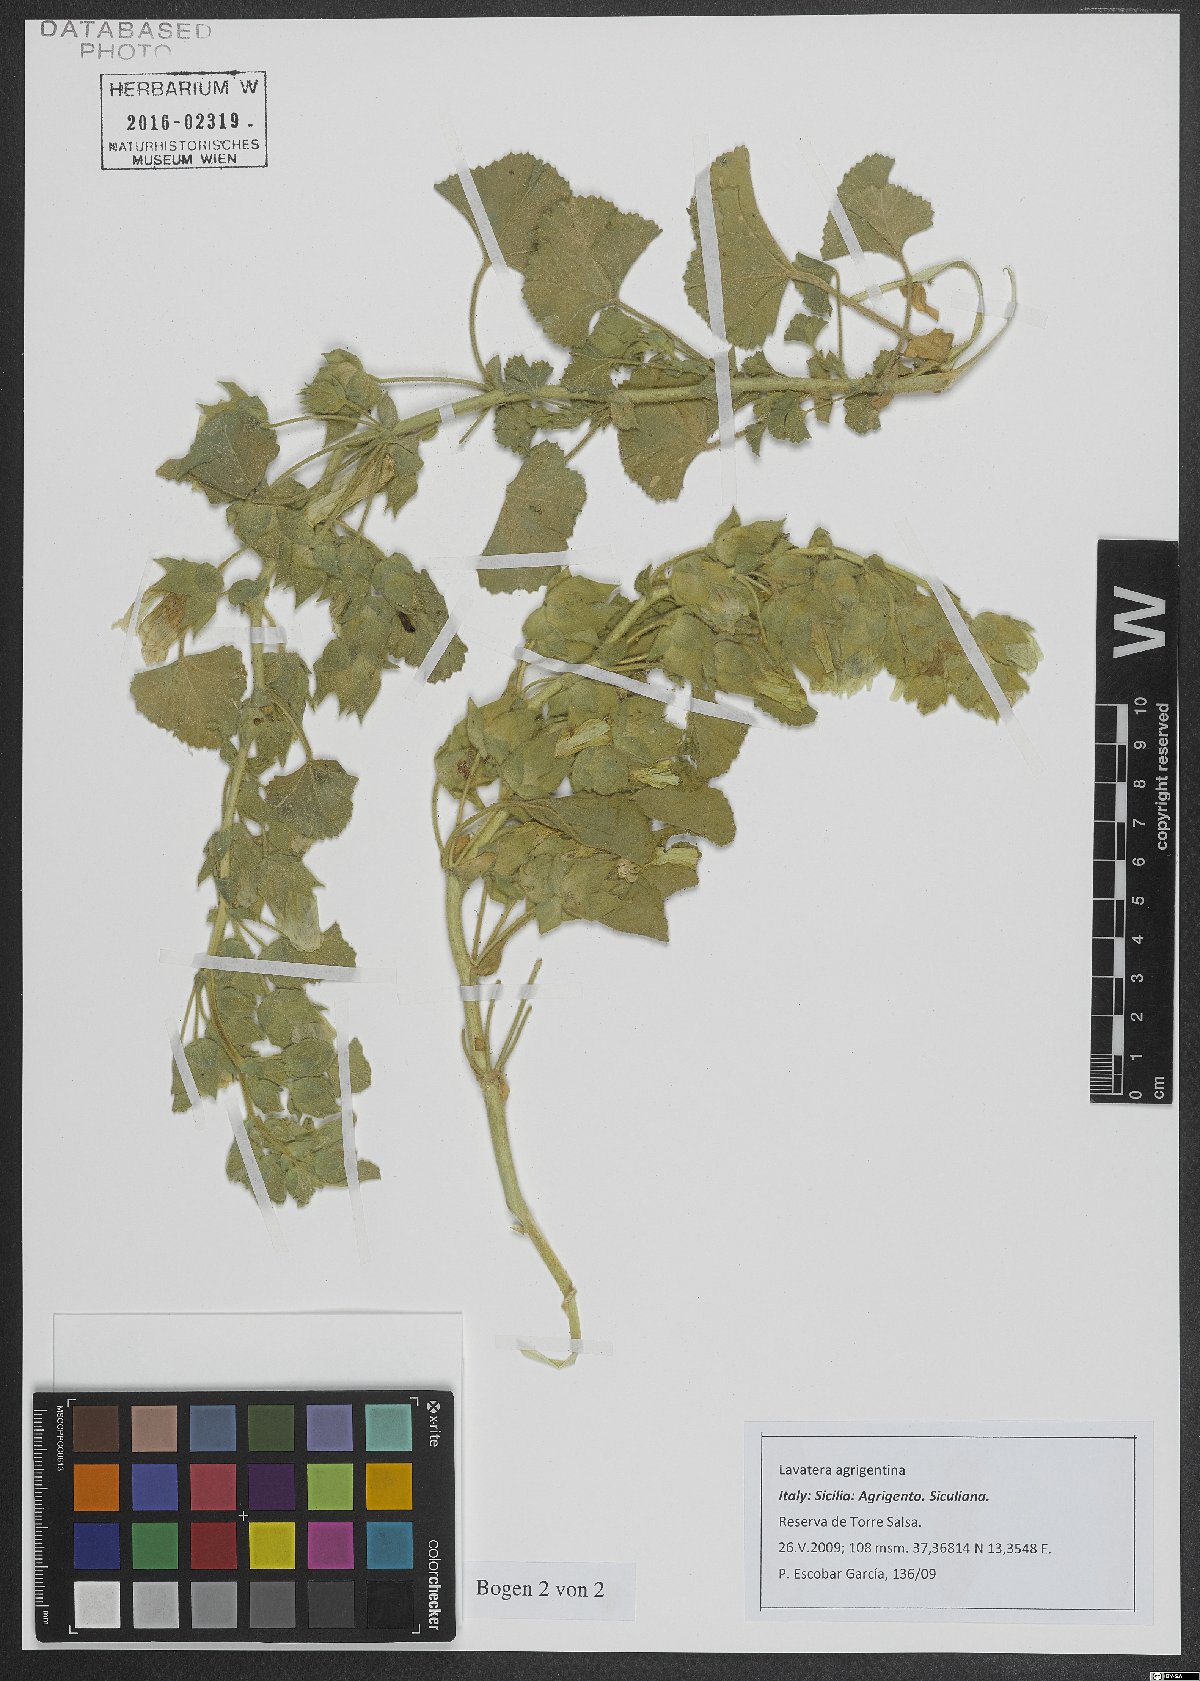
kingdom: Plantae
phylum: Tracheophyta
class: Magnoliopsida
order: Malvales
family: Malvaceae
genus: Malva
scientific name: Malva agrigentina
